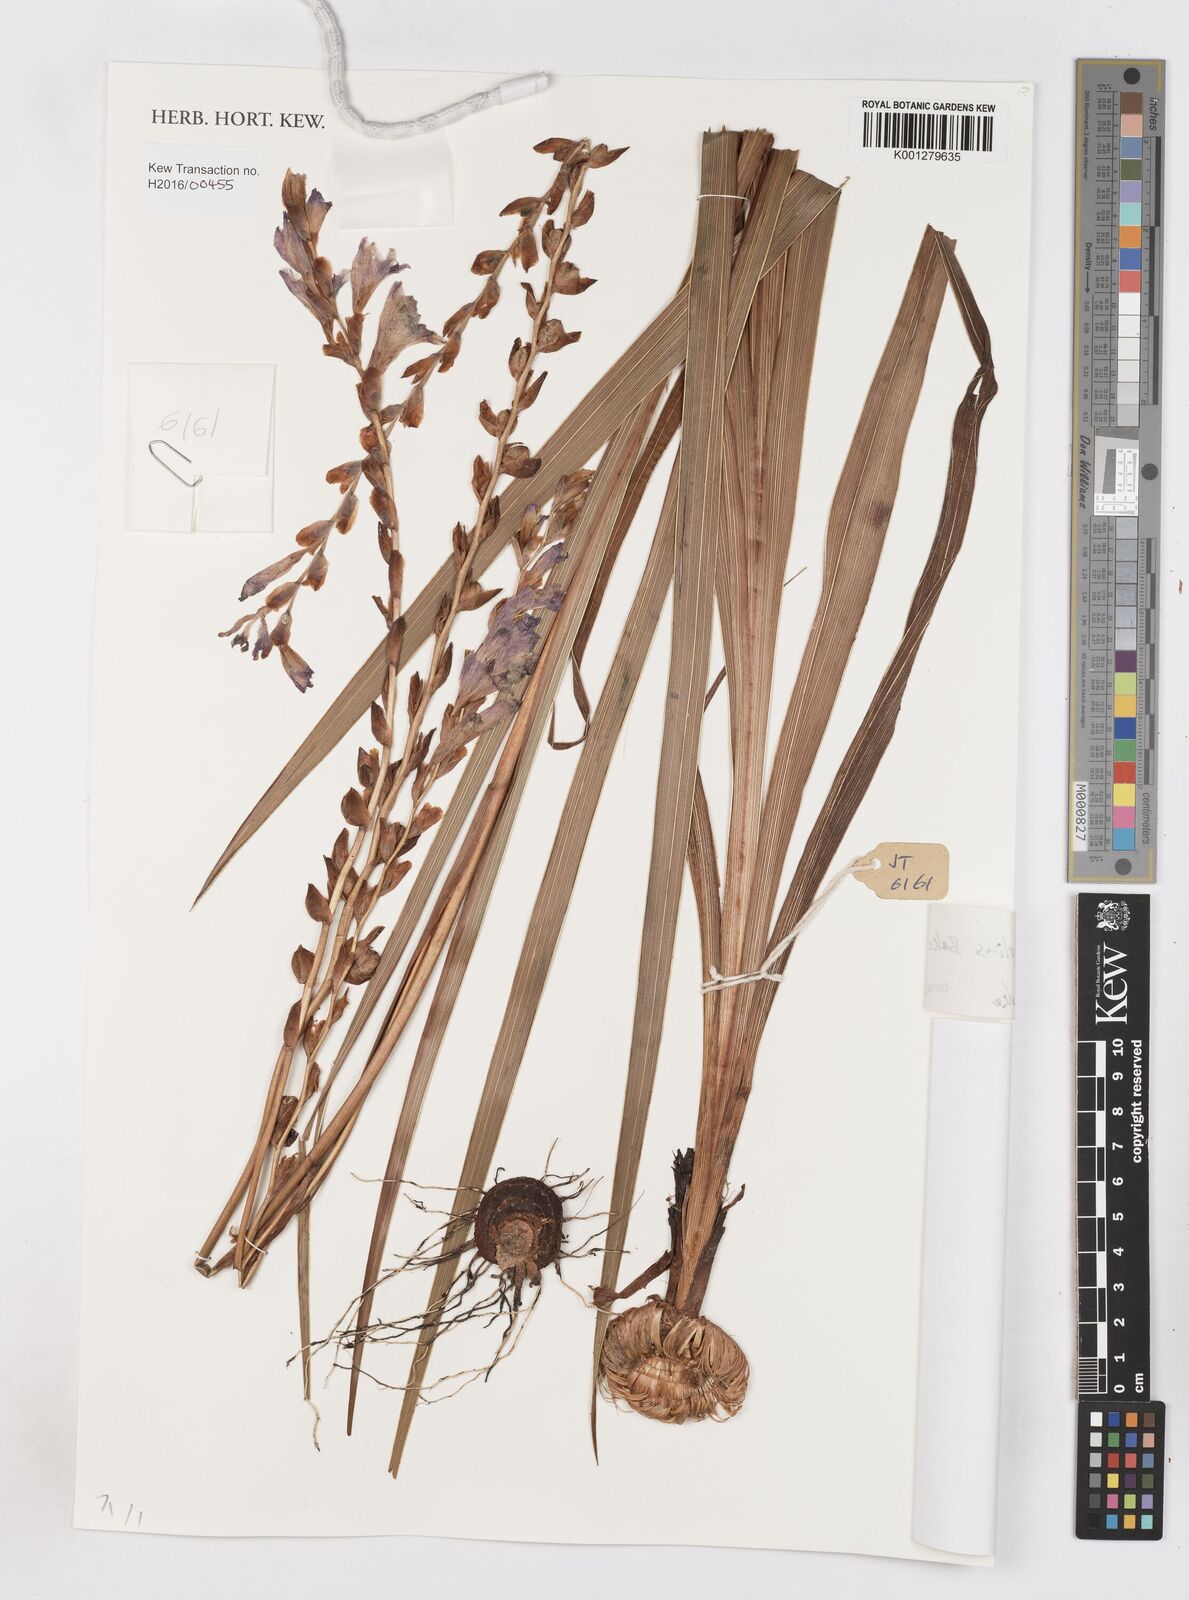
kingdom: Plantae
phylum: Tracheophyta
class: Liliopsida
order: Asparagales
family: Iridaceae
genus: Gladiolus
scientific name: Gladiolus crassifolius
